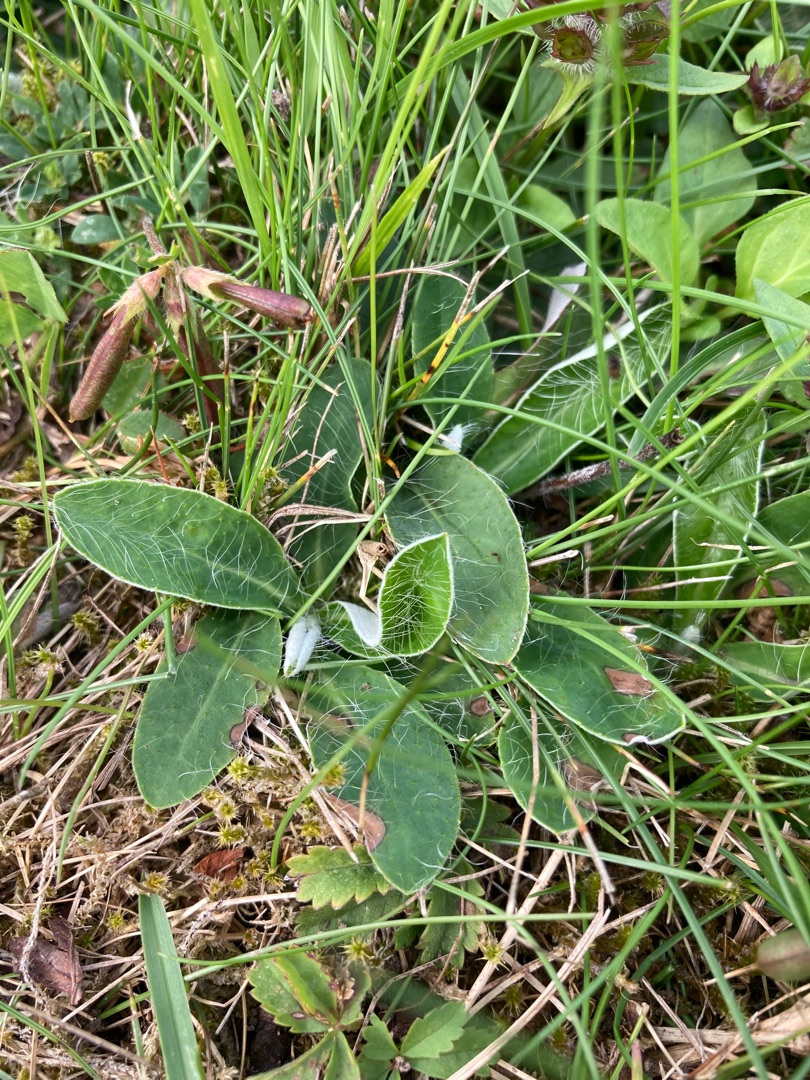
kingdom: Plantae
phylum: Tracheophyta
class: Magnoliopsida
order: Asterales
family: Asteraceae
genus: Pilosella
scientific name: Pilosella officinarum
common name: Håret høgeurt
